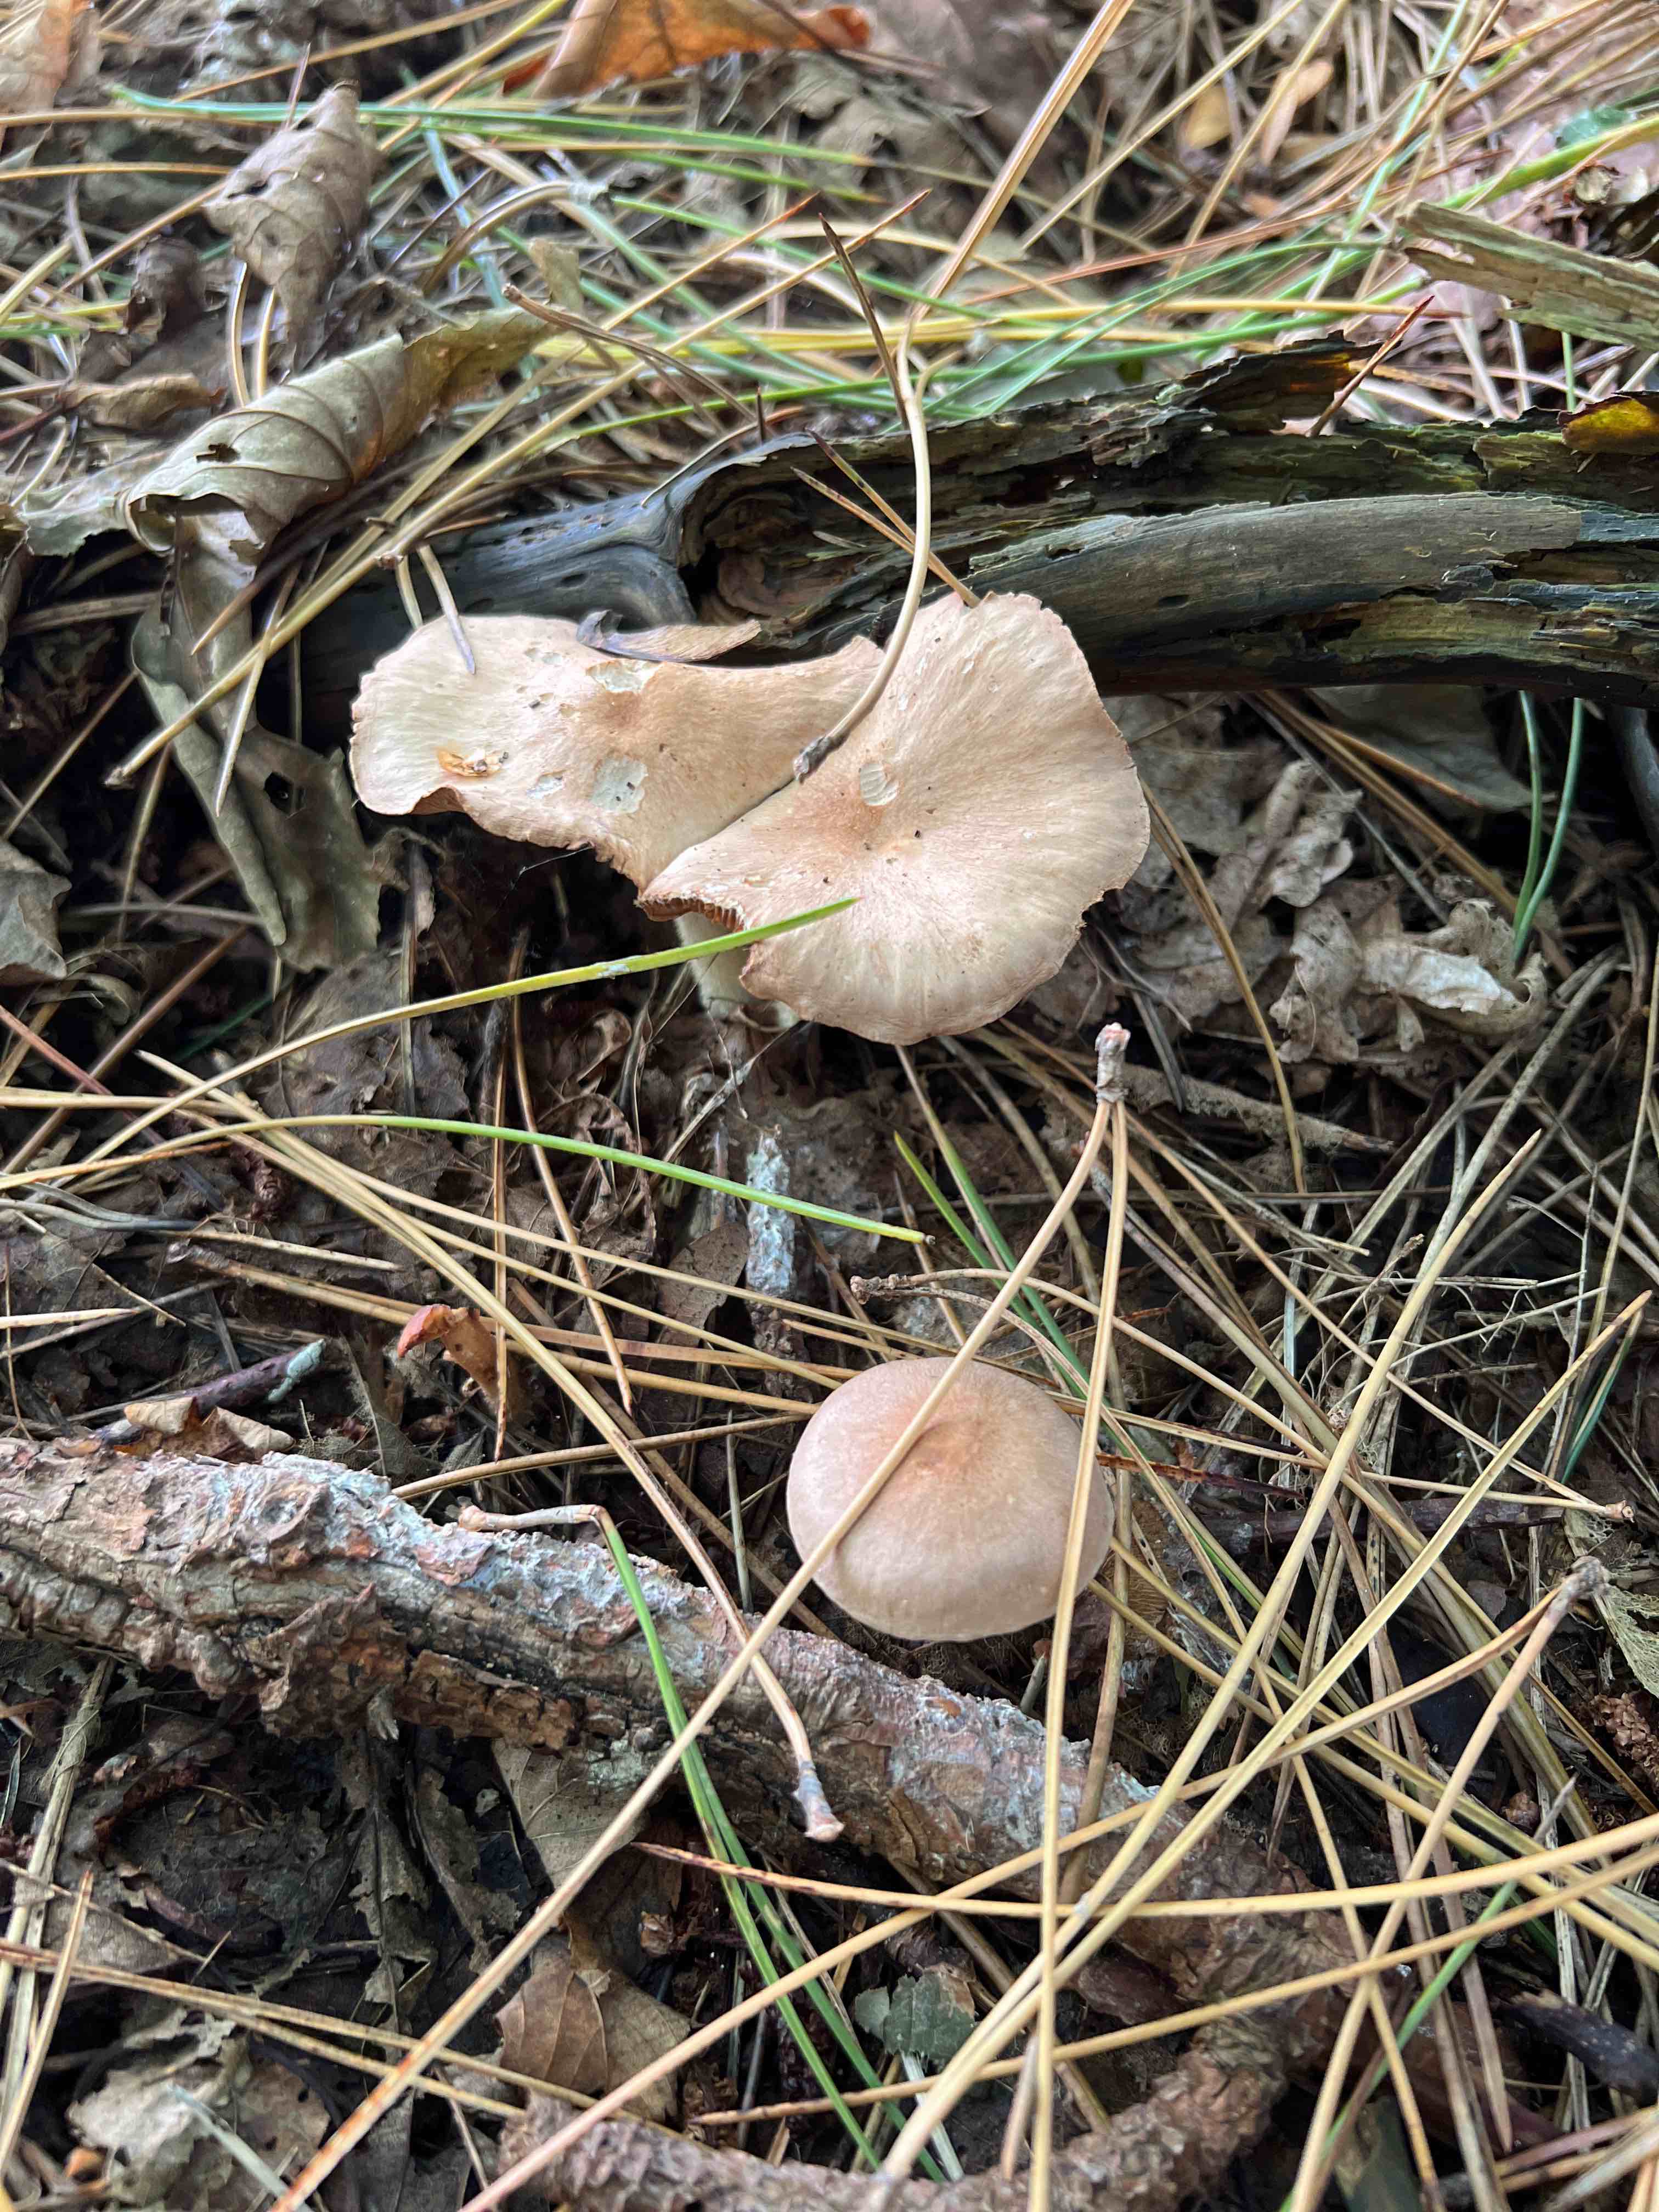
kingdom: Fungi
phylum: Basidiomycota
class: Agaricomycetes
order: Agaricales
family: Omphalotaceae
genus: Collybiopsis
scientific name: Collybiopsis peronata
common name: bestøvlet fladhat
